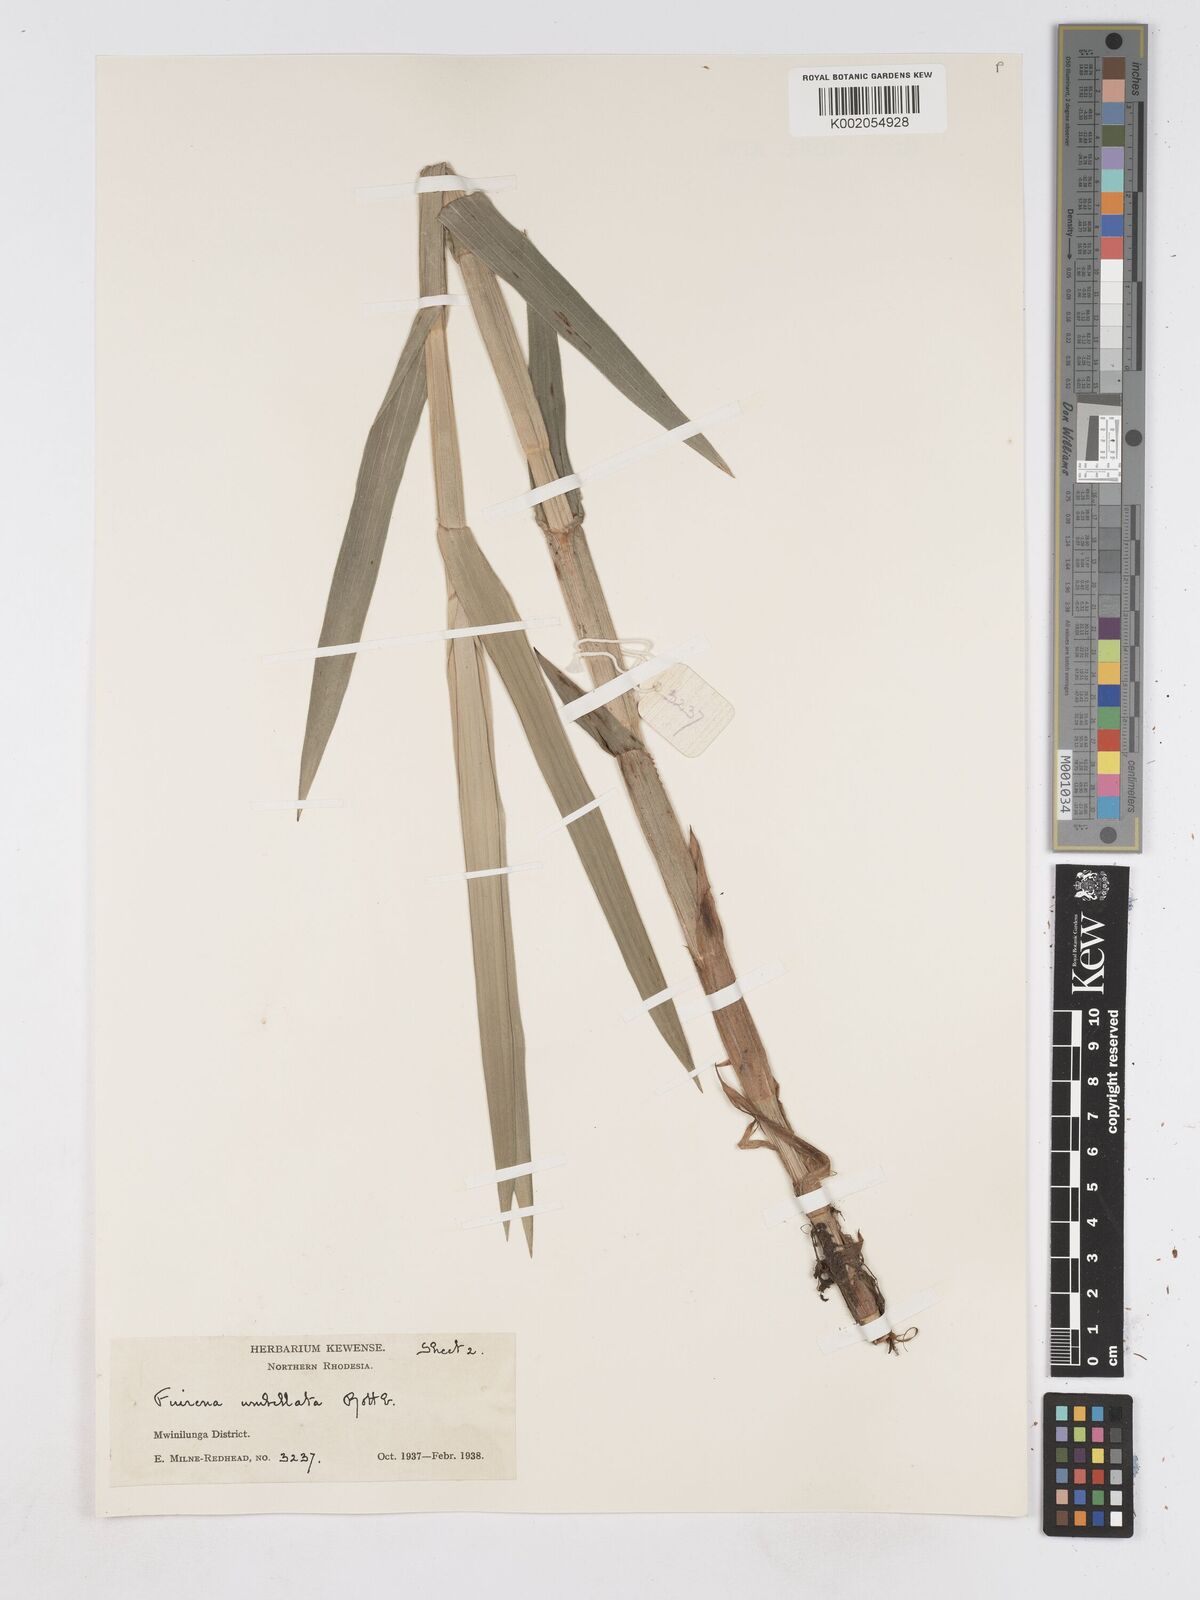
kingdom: Plantae
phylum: Tracheophyta
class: Liliopsida
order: Poales
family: Cyperaceae
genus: Fuirena
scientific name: Fuirena umbellata
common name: Yefen
